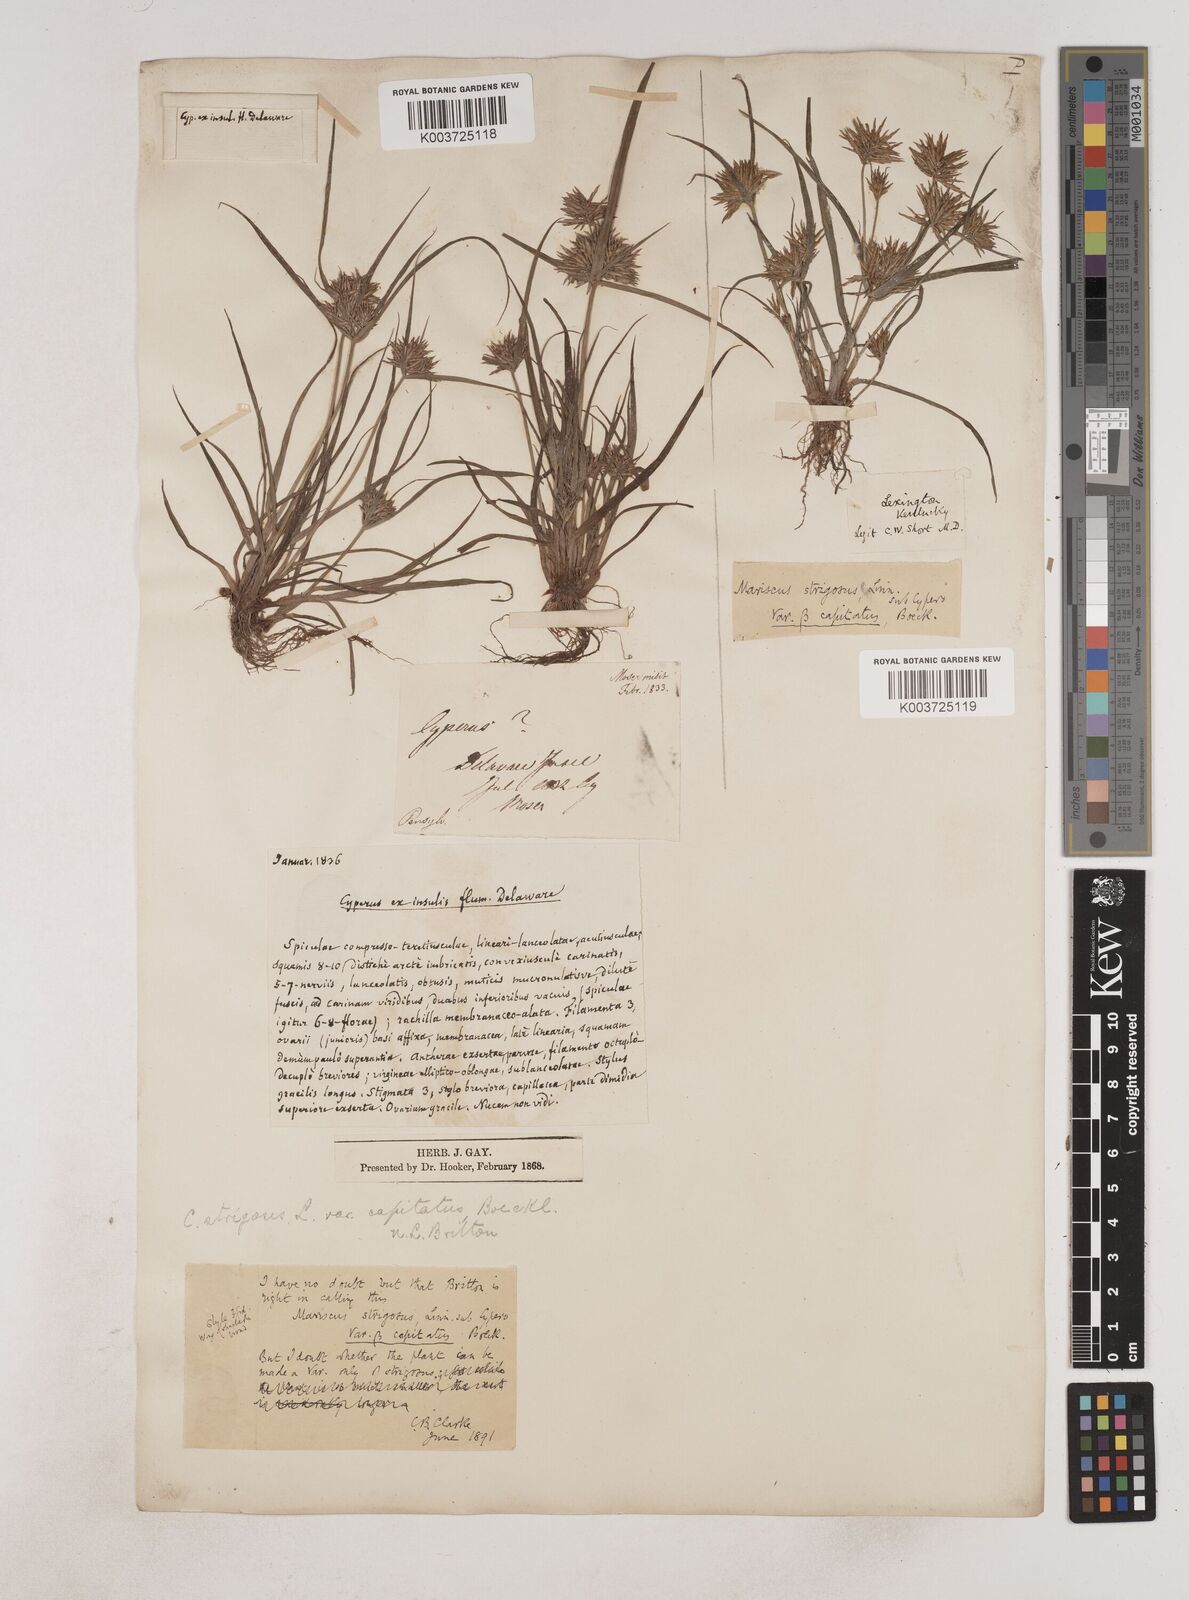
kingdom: Plantae
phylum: Tracheophyta
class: Liliopsida
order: Poales
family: Cyperaceae
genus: Cyperus
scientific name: Cyperus strigosus
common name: False nutsedge
